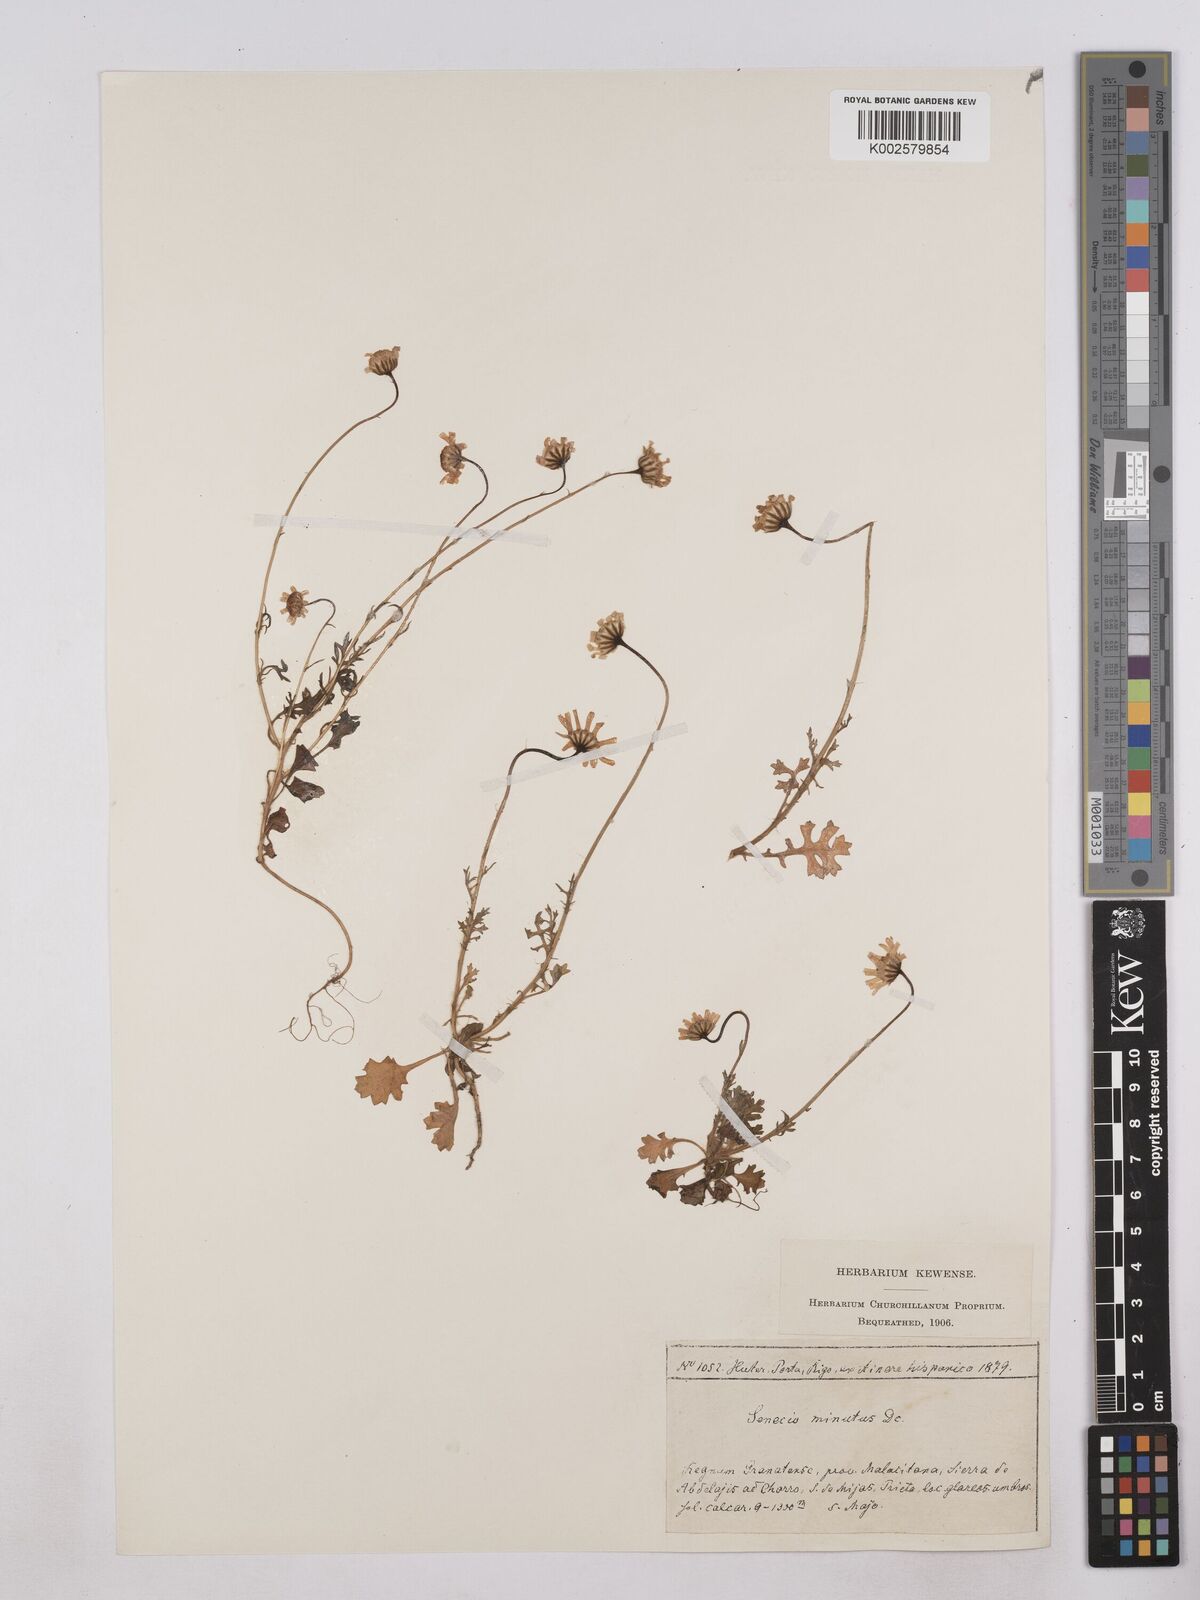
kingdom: Plantae
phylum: Tracheophyta
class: Magnoliopsida
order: Asterales
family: Asteraceae
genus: Jacobaea
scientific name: Jacobaea minuta
